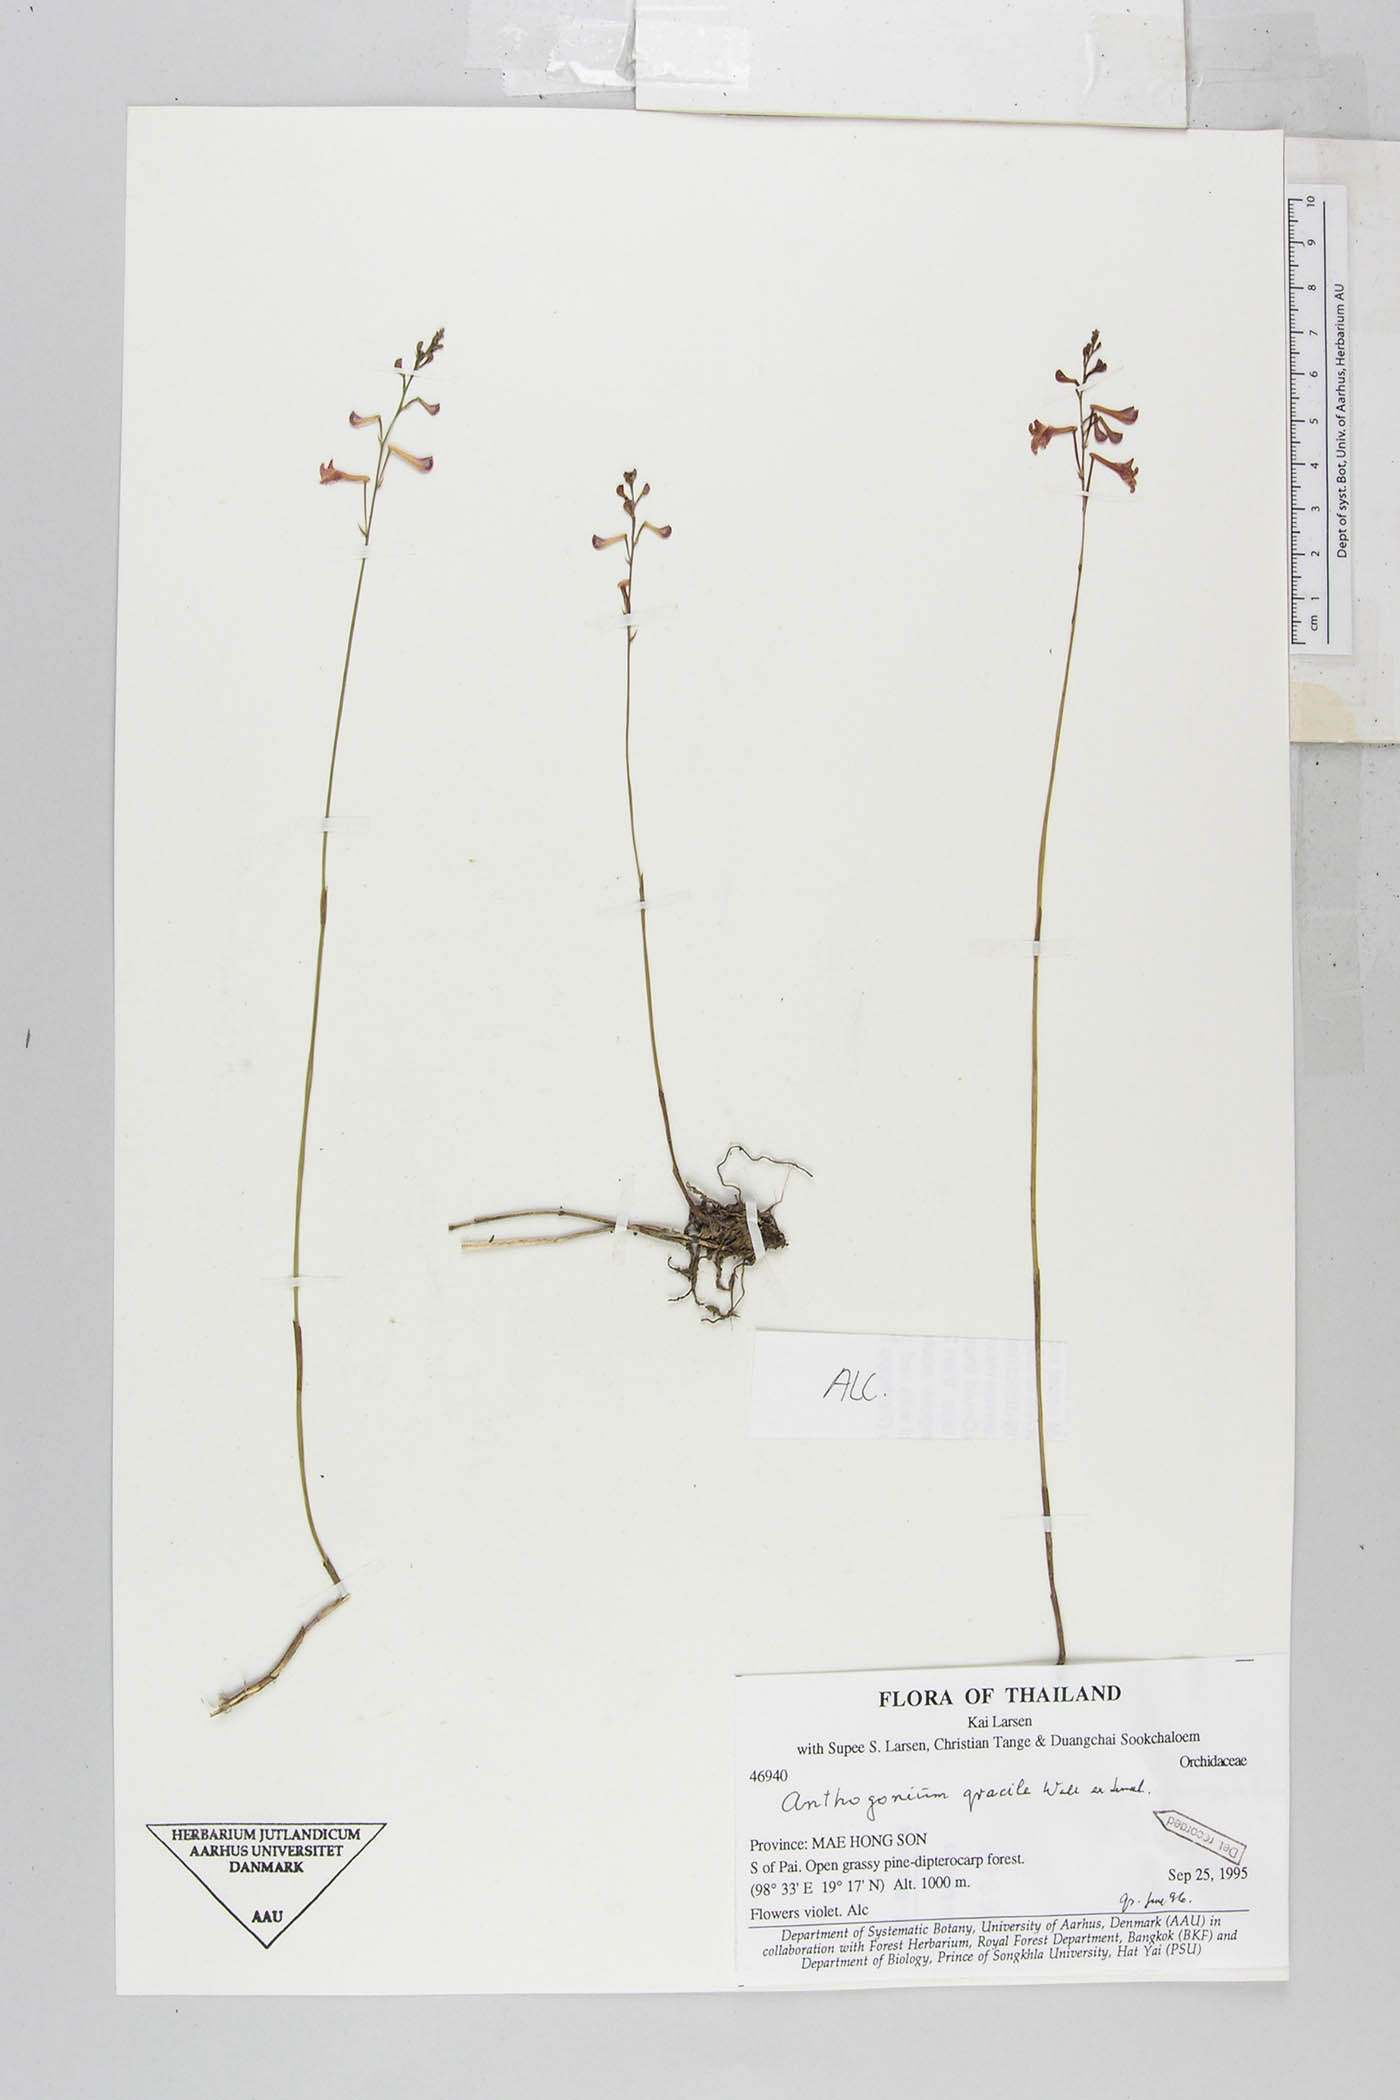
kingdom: Plantae
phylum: Tracheophyta
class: Liliopsida
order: Asparagales
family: Orchidaceae
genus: Anthogonium
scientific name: Anthogonium gracile
